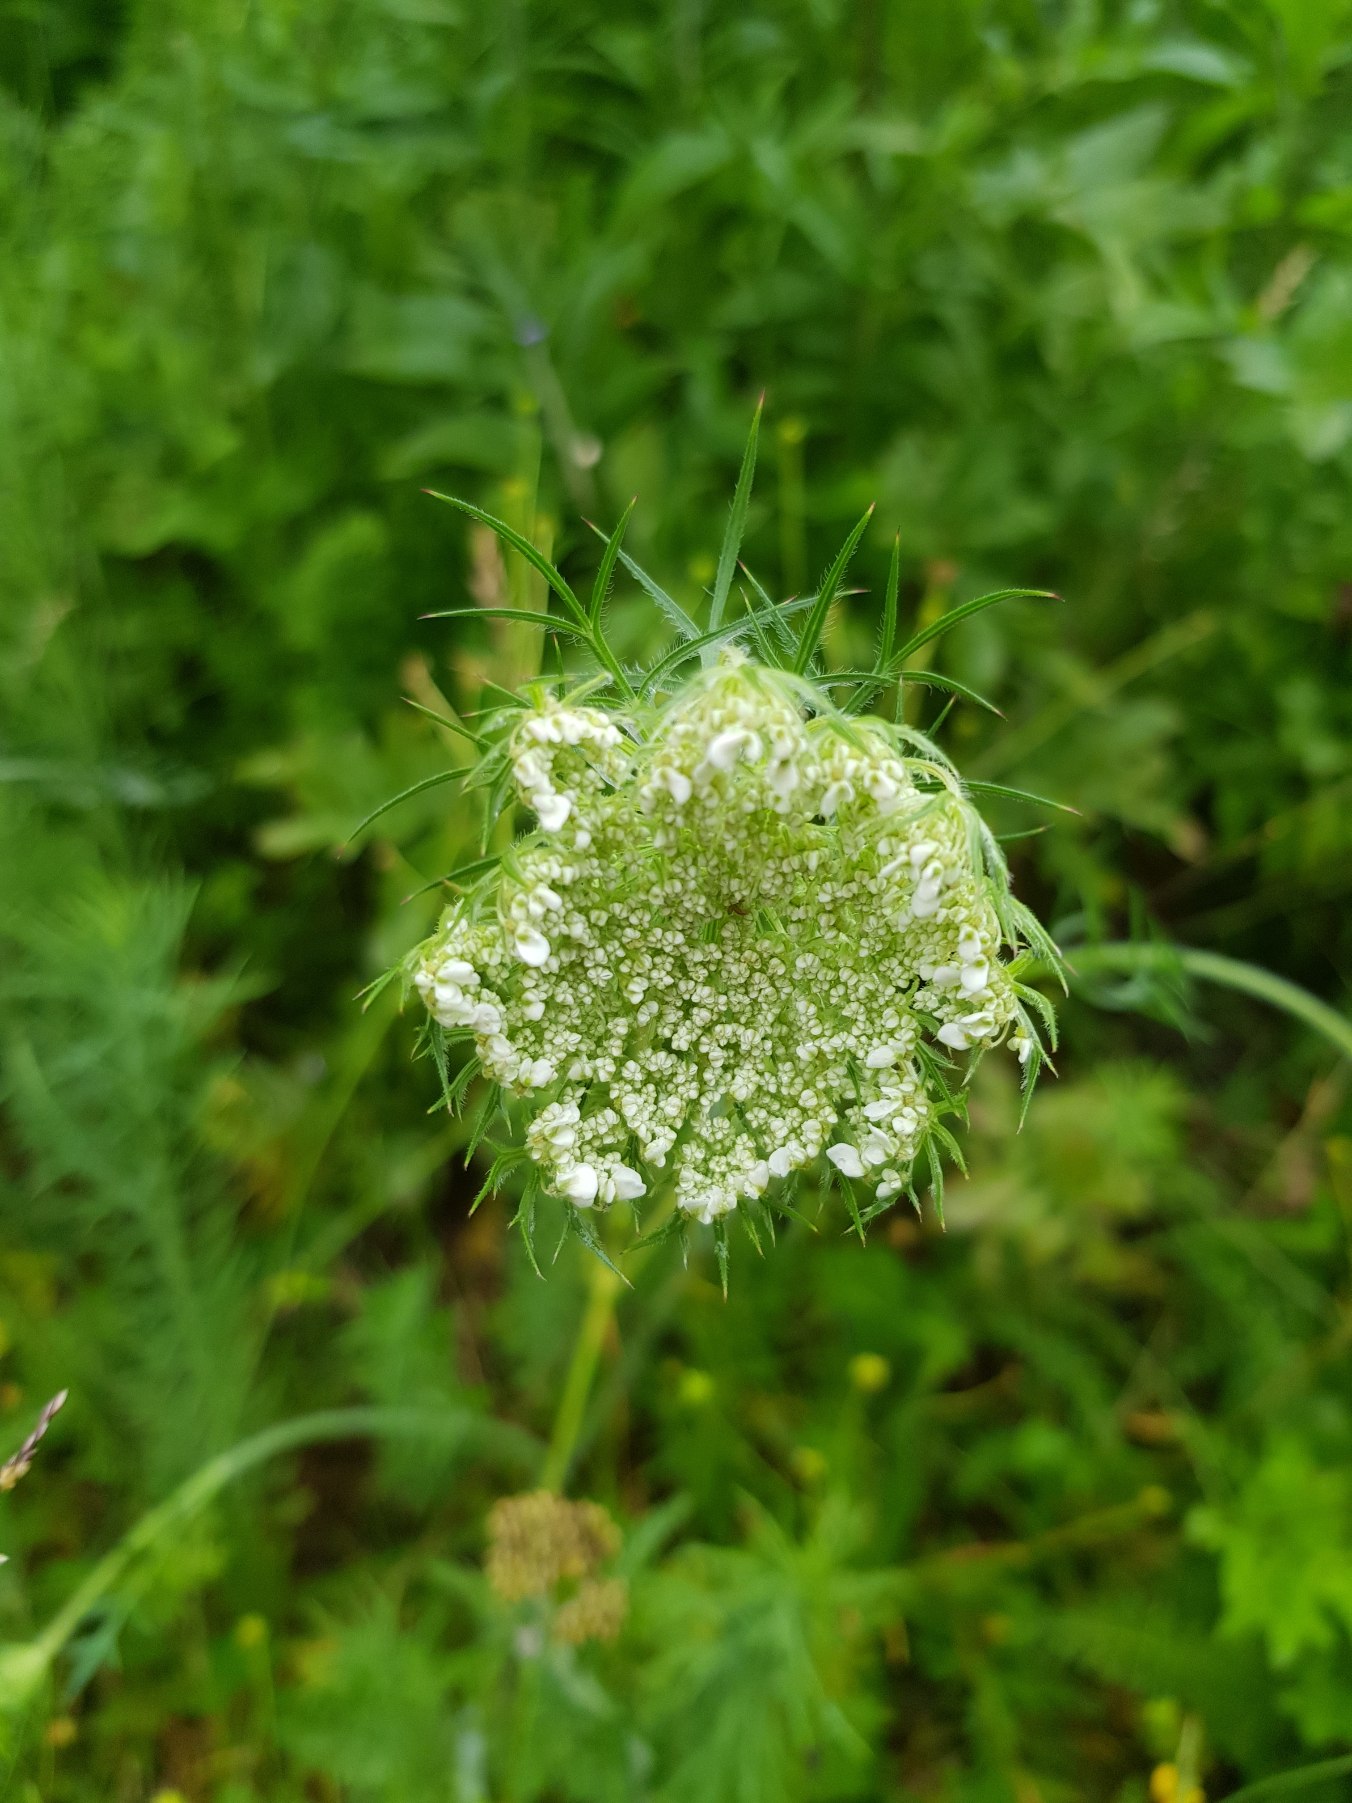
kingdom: Plantae
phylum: Tracheophyta
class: Magnoliopsida
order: Apiales
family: Apiaceae
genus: Daucus
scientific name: Daucus carota
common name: Vild gulerod
